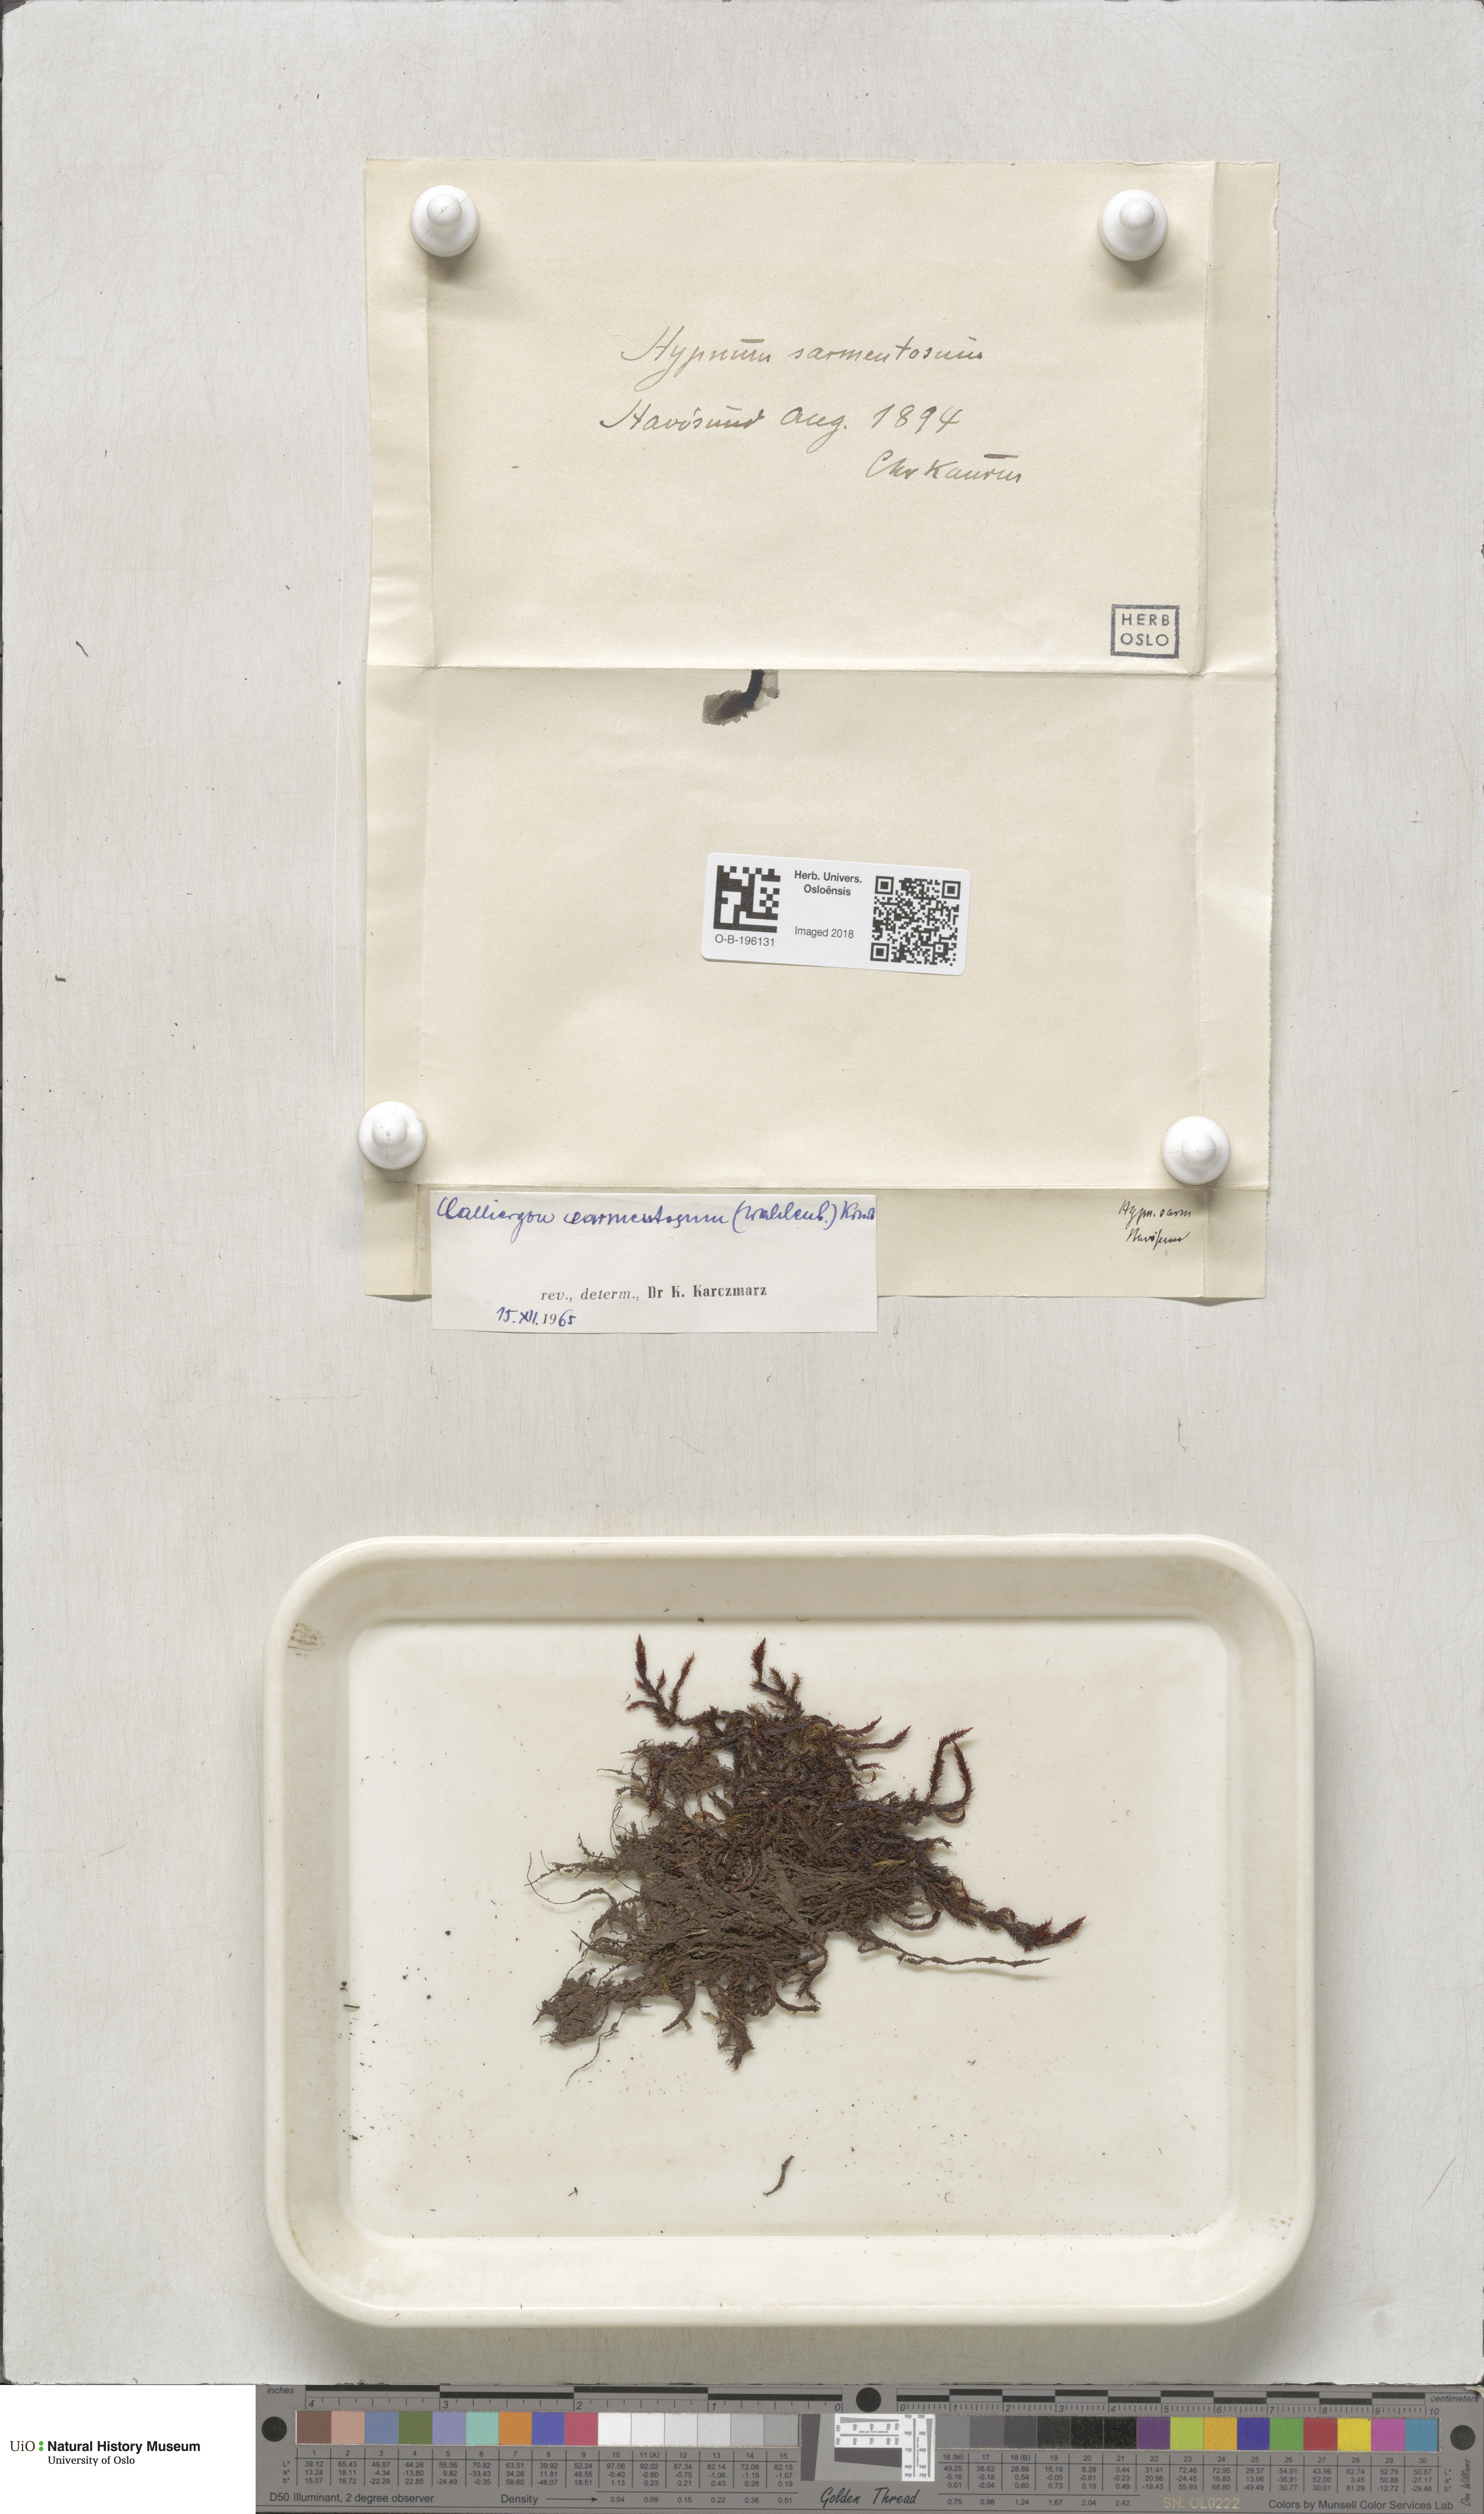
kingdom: Plantae
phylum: Bryophyta
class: Bryopsida
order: Hypnales
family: Calliergonaceae
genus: Sarmentypnum
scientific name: Sarmentypnum sarmentosum
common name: Twiggy spoon moss
